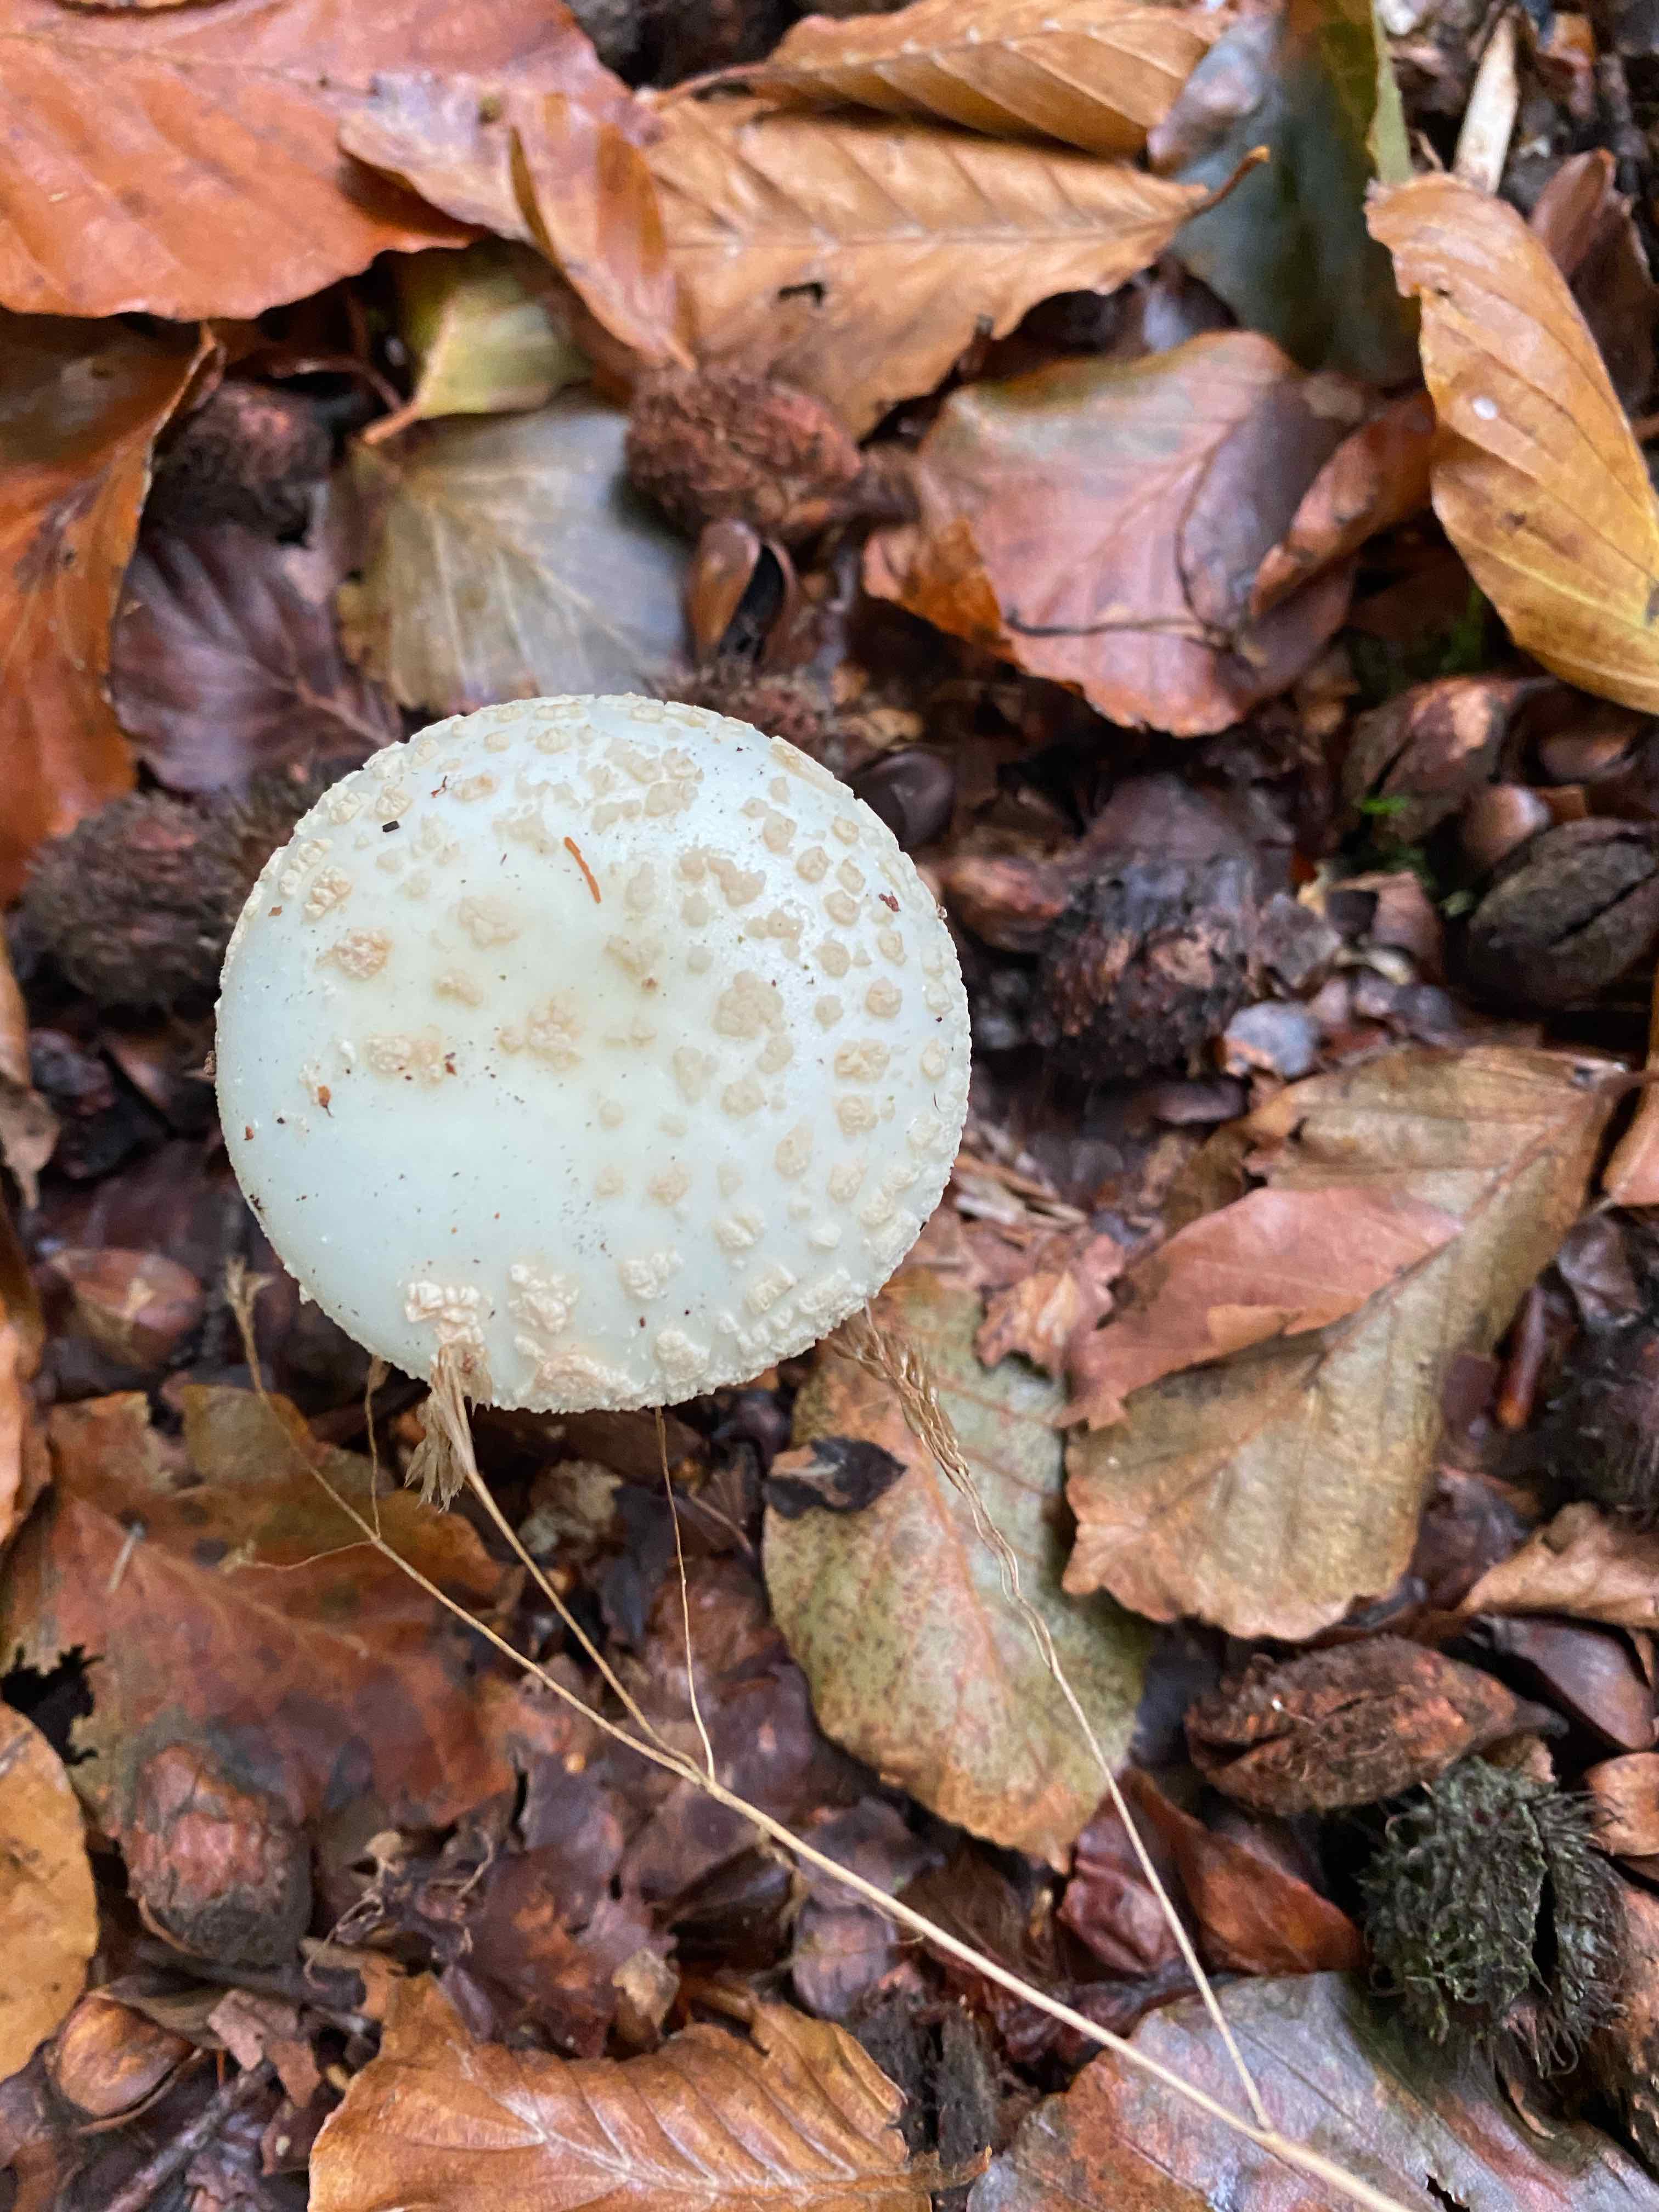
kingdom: Fungi
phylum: Basidiomycota
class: Agaricomycetes
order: Agaricales
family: Amanitaceae
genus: Amanita
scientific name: Amanita citrina
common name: kugleknoldet fluesvamp
